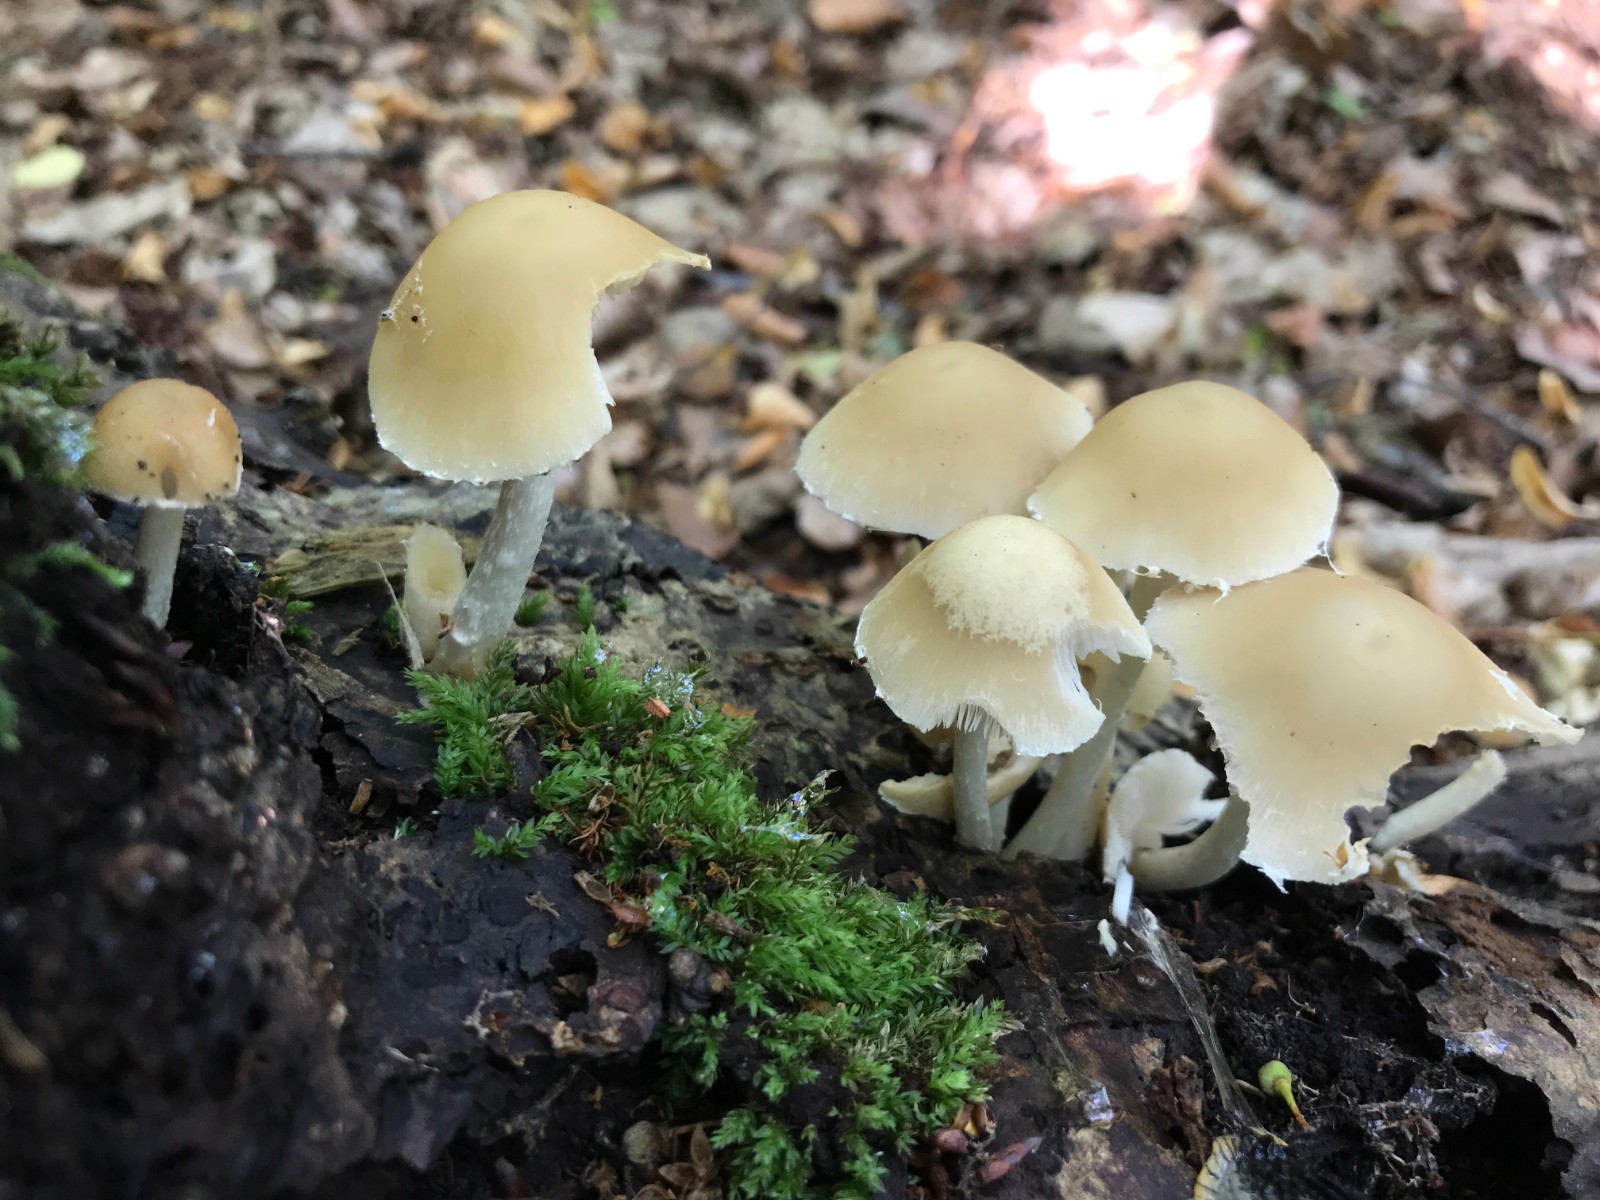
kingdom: Fungi
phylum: Basidiomycota
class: Agaricomycetes
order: Agaricales
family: Psathyrellaceae
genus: Candolleomyces
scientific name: Candolleomyces candolleanus
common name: Candolles mørkhat
